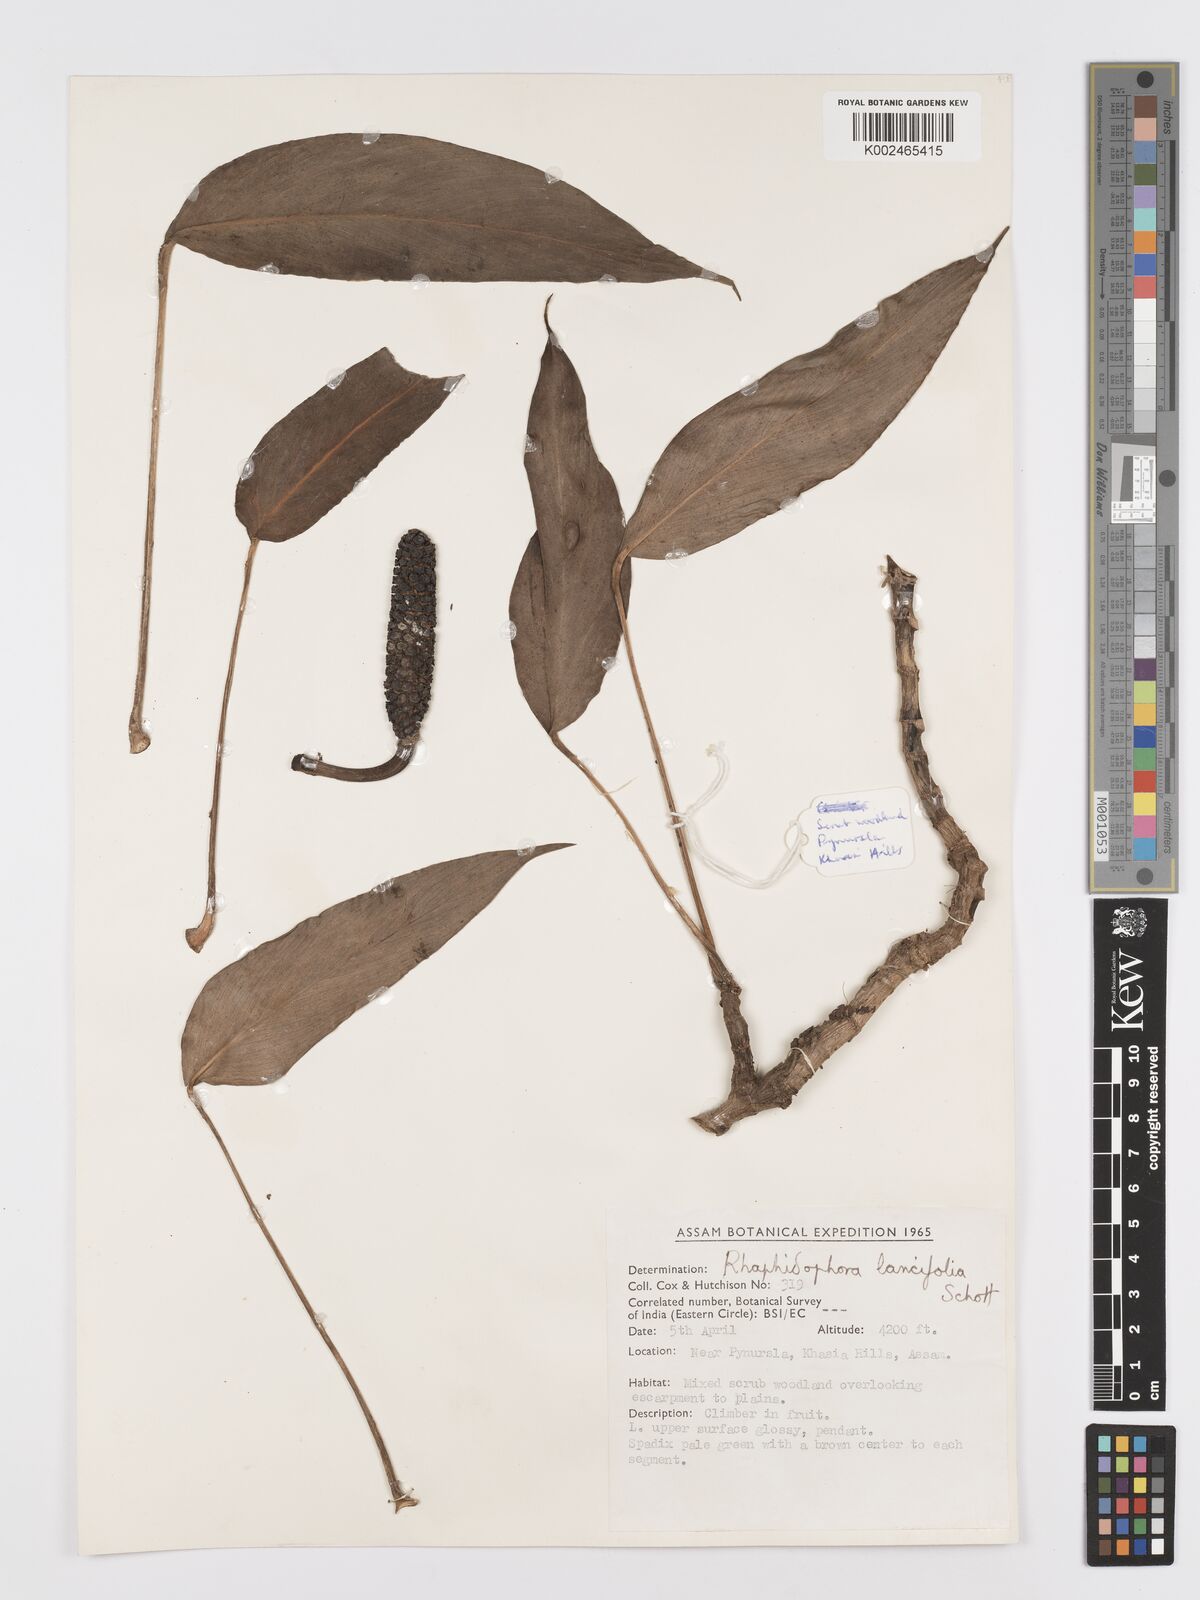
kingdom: Plantae
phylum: Tracheophyta
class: Liliopsida
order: Alismatales
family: Araceae
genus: Rhaphidophora
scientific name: Rhaphidophora peepla
